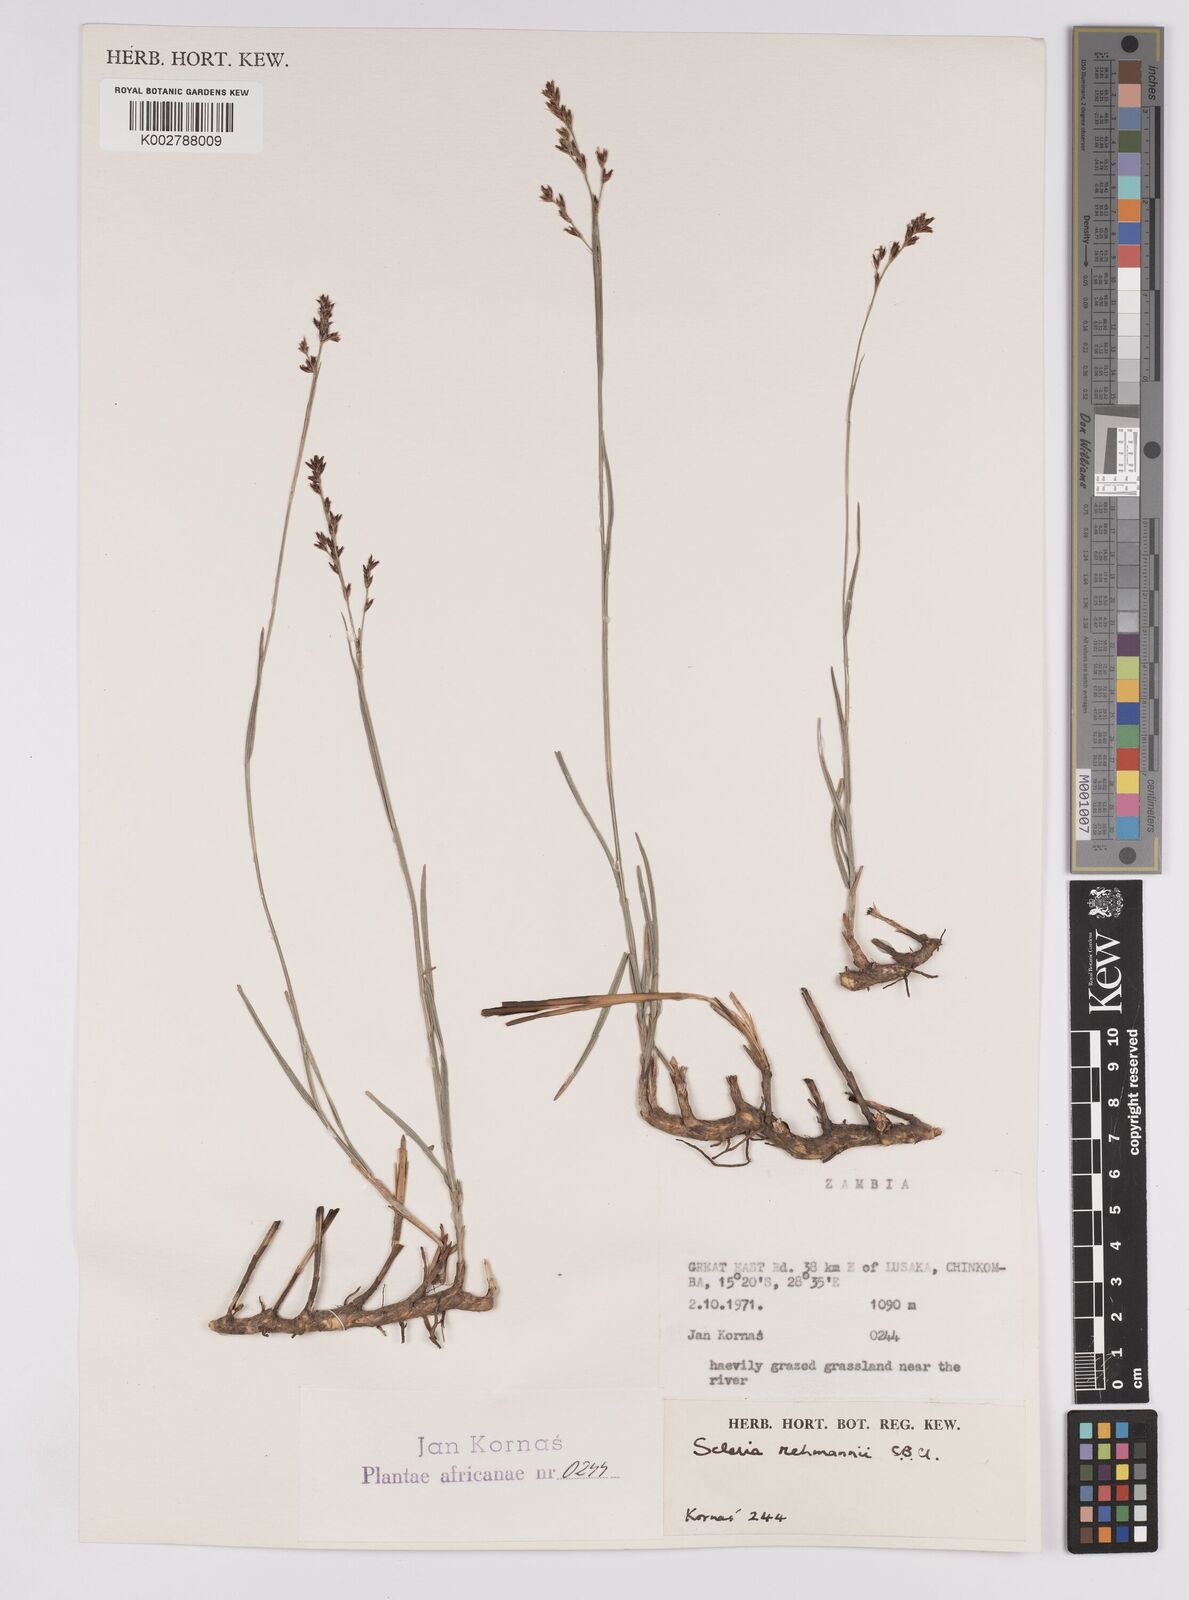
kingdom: Plantae
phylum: Tracheophyta
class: Liliopsida
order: Poales
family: Cyperaceae
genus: Scleria
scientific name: Scleria rehmannii
